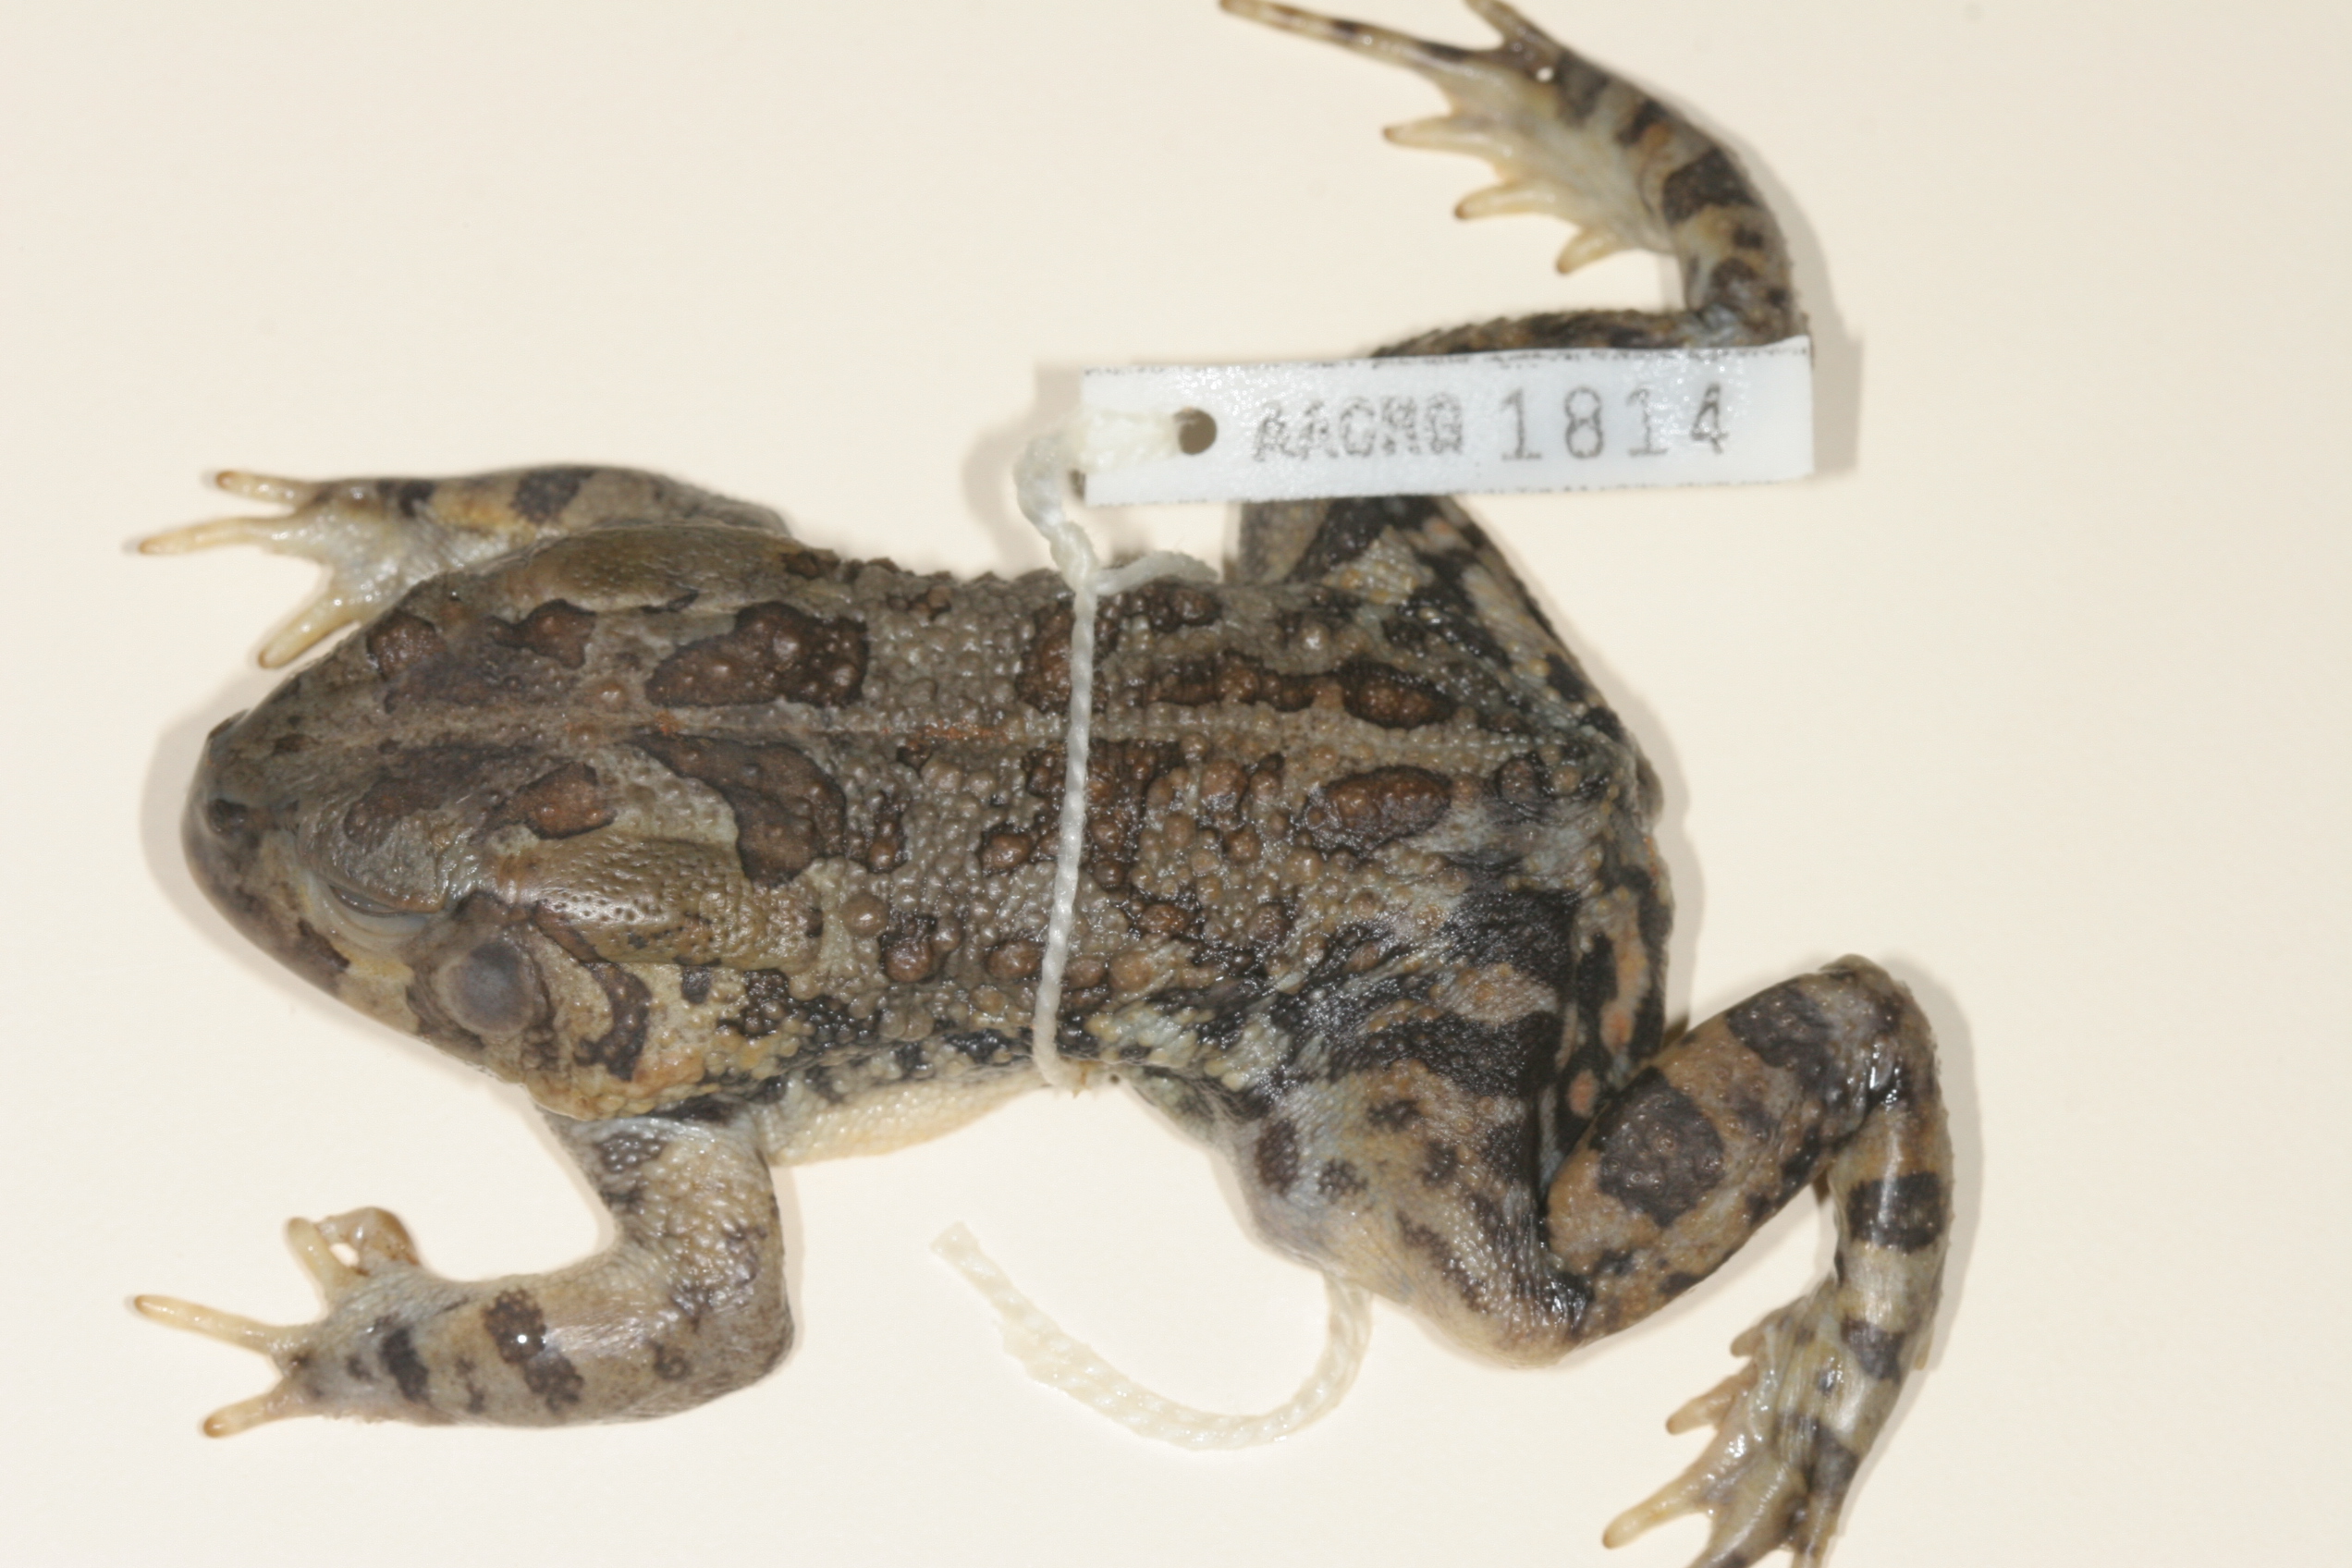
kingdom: Animalia
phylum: Chordata
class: Amphibia
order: Anura
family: Bufonidae
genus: Sclerophrys
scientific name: Sclerophrys garmani
